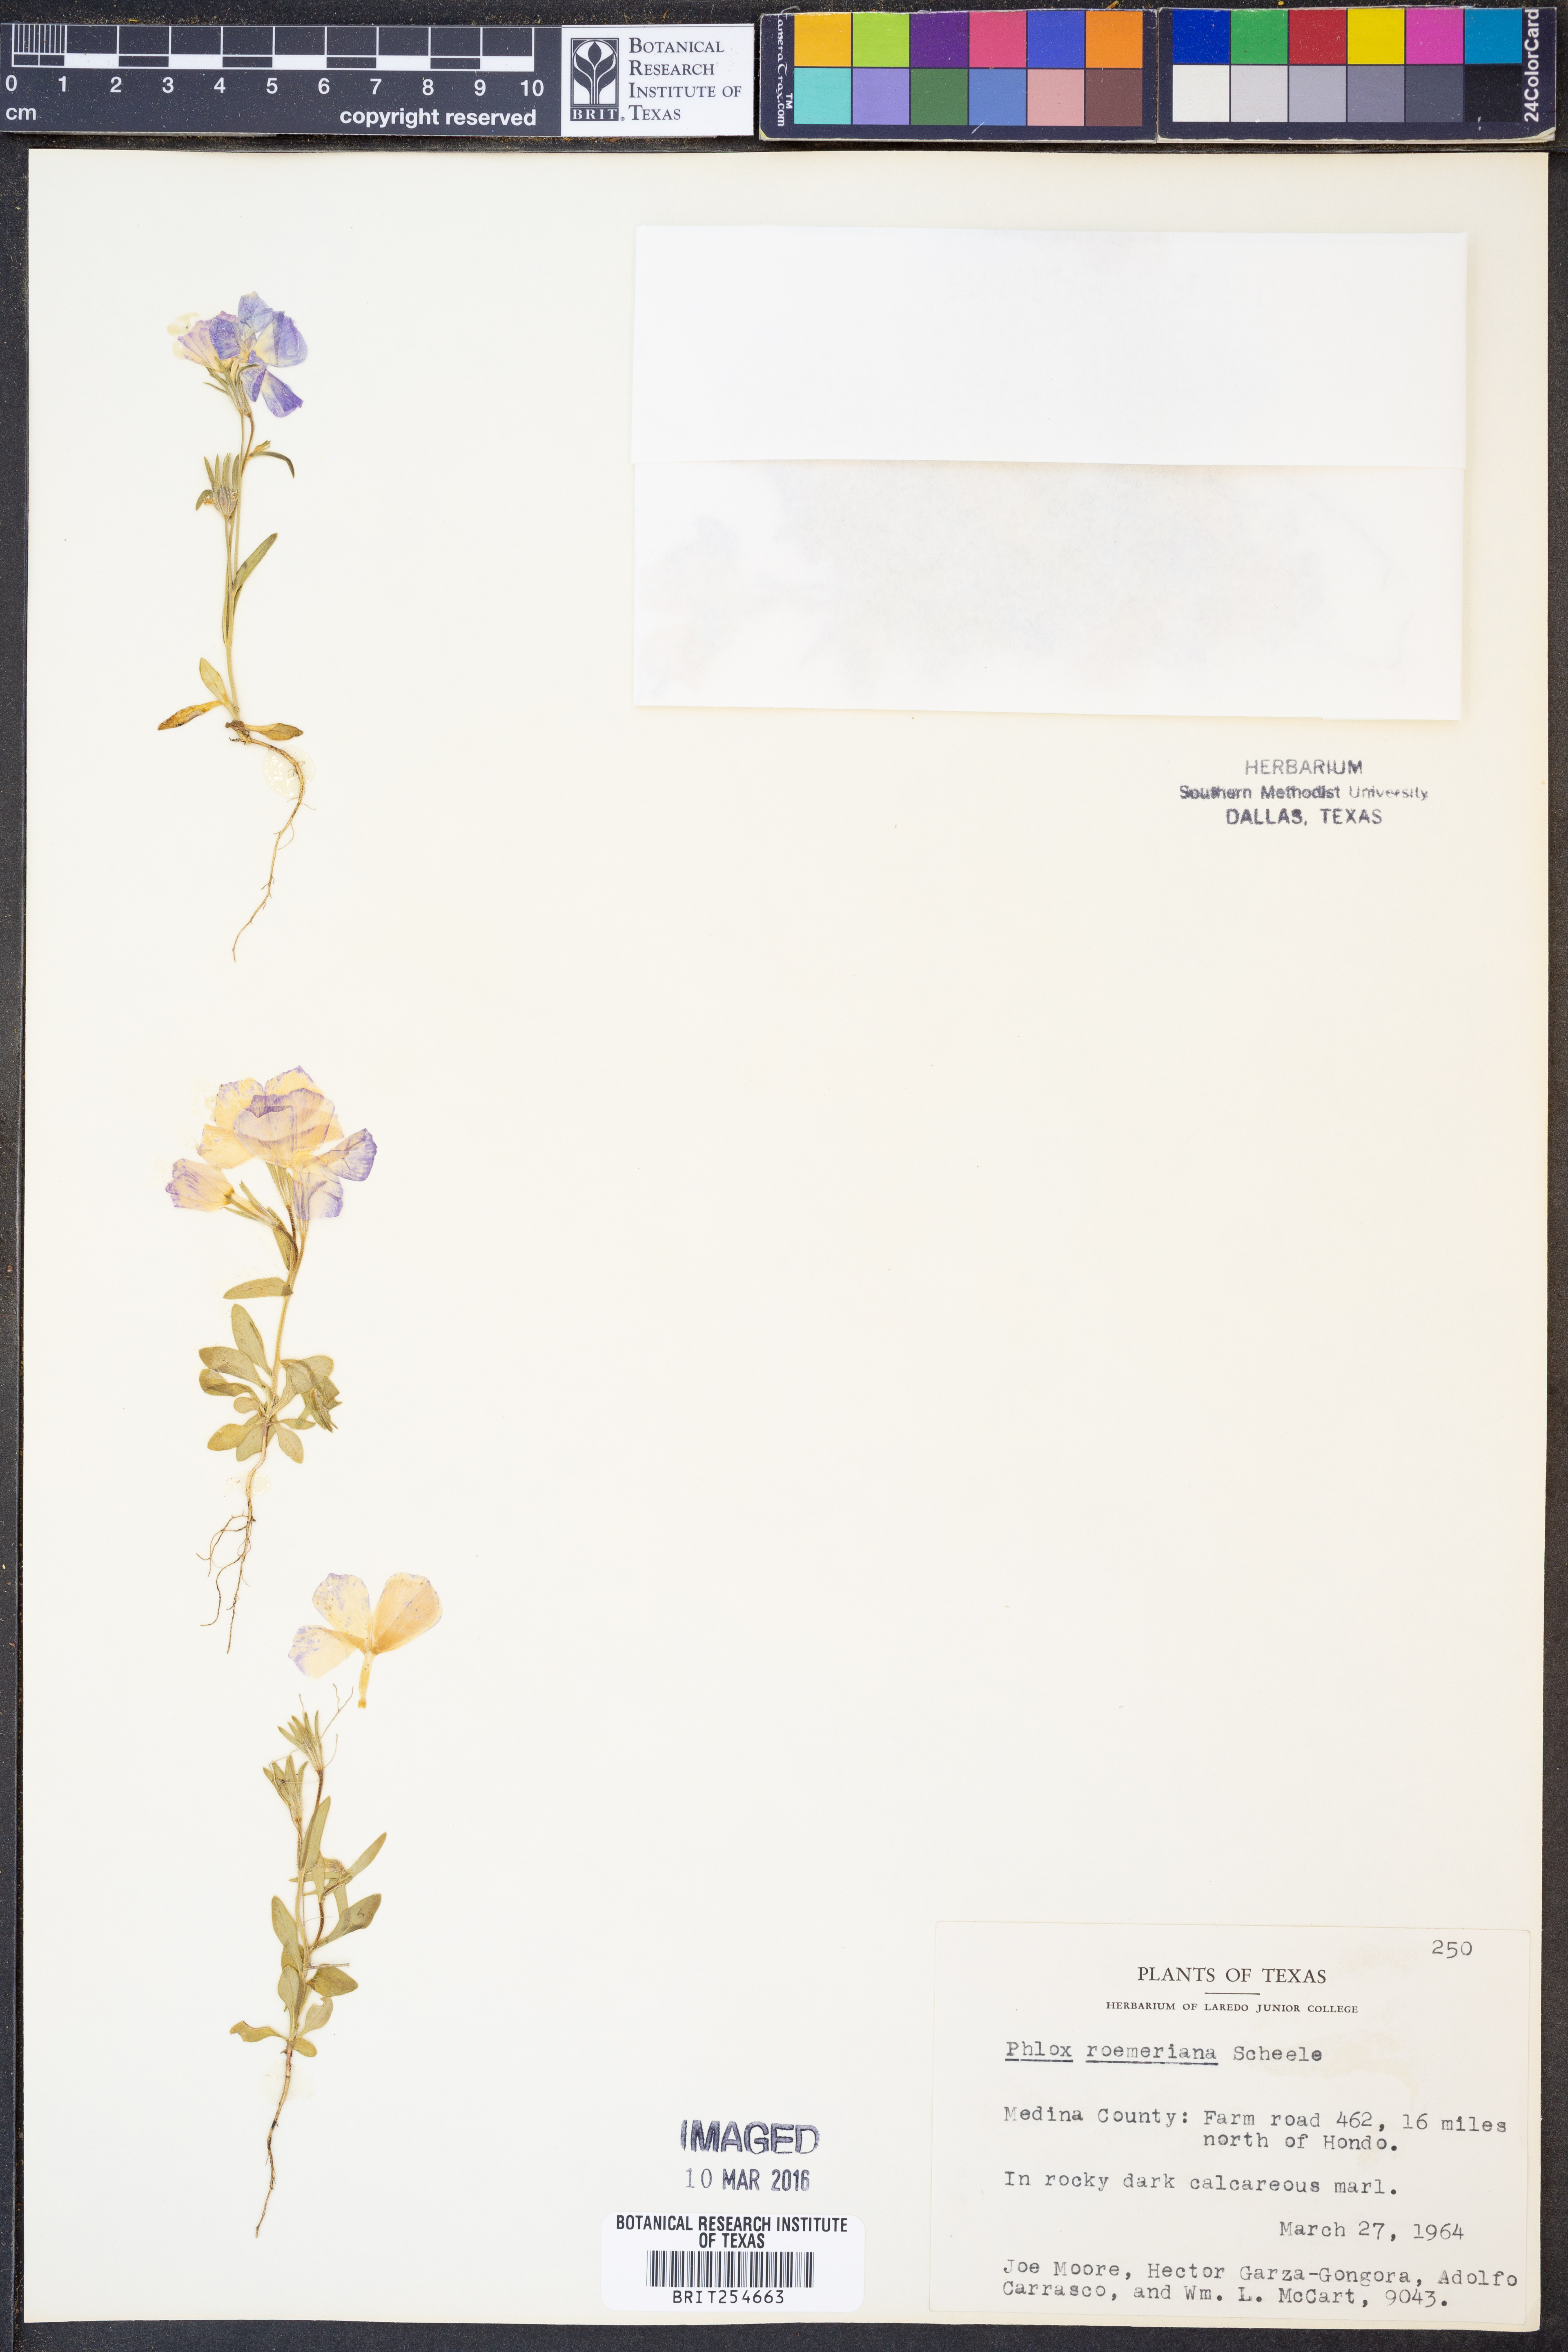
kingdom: Plantae
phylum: Tracheophyta
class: Magnoliopsida
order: Ericales
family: Polemoniaceae
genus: Phlox
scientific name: Phlox roemeriana
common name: Roemer's phlox
